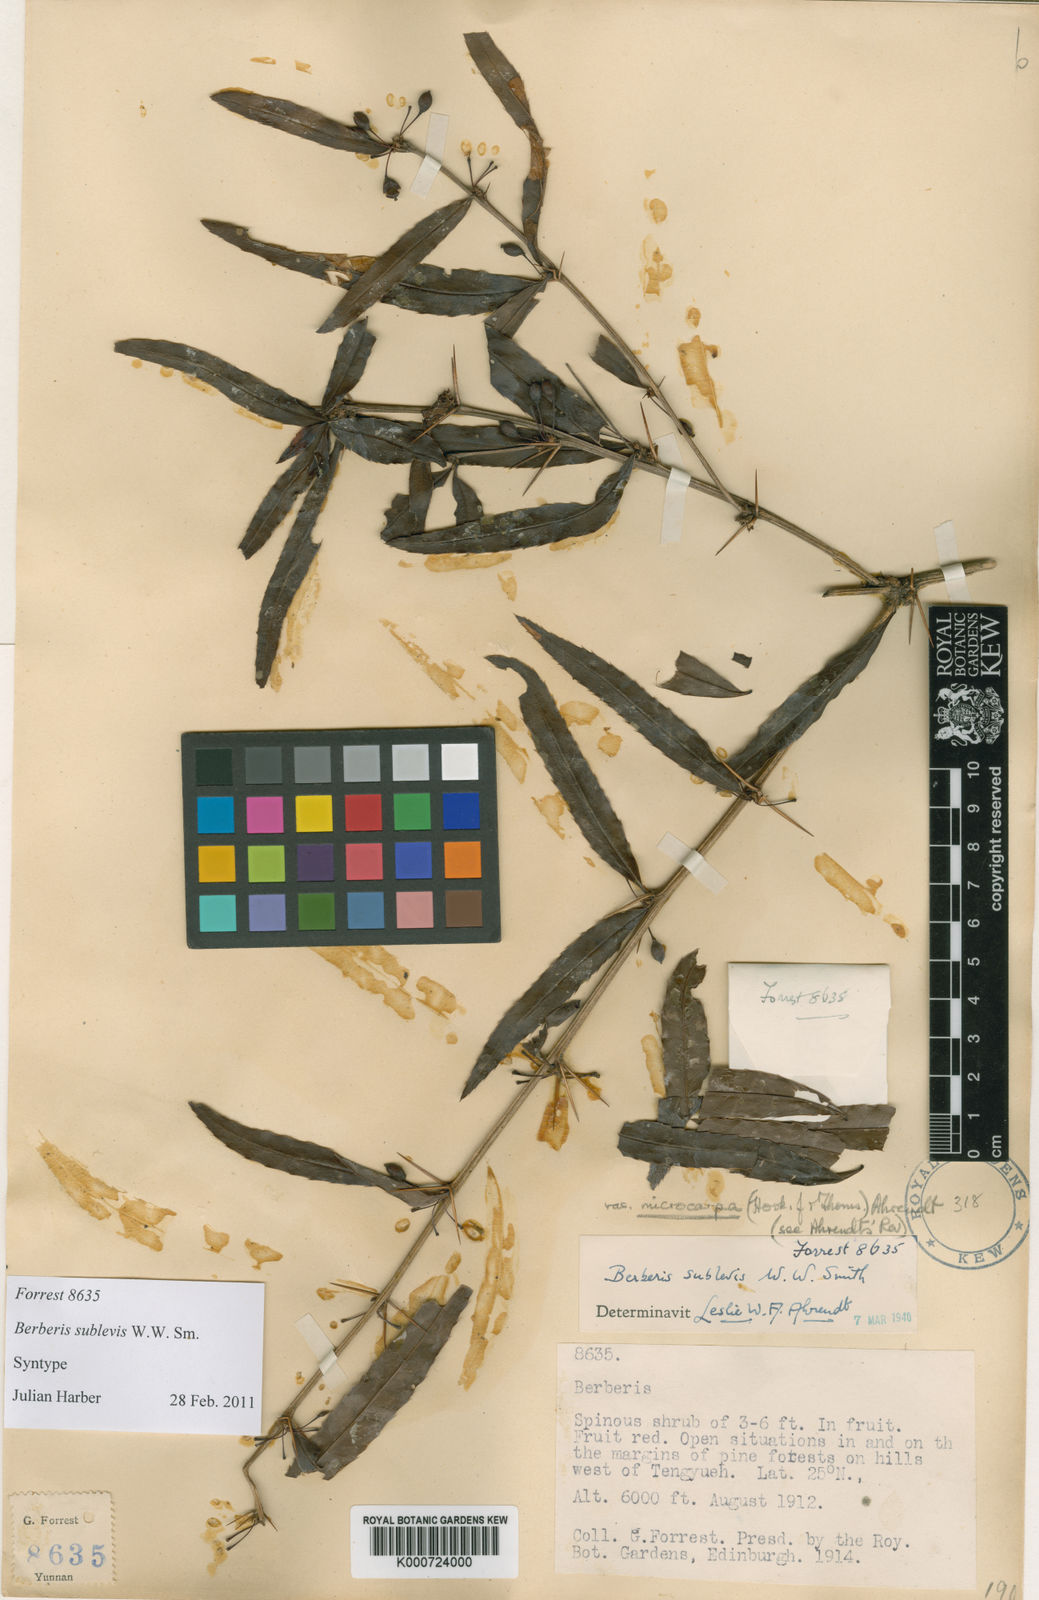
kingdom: Plantae
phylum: Tracheophyta
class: Magnoliopsida
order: Ranunculales
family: Berberidaceae
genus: Berberis
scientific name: Berberis sublevis
